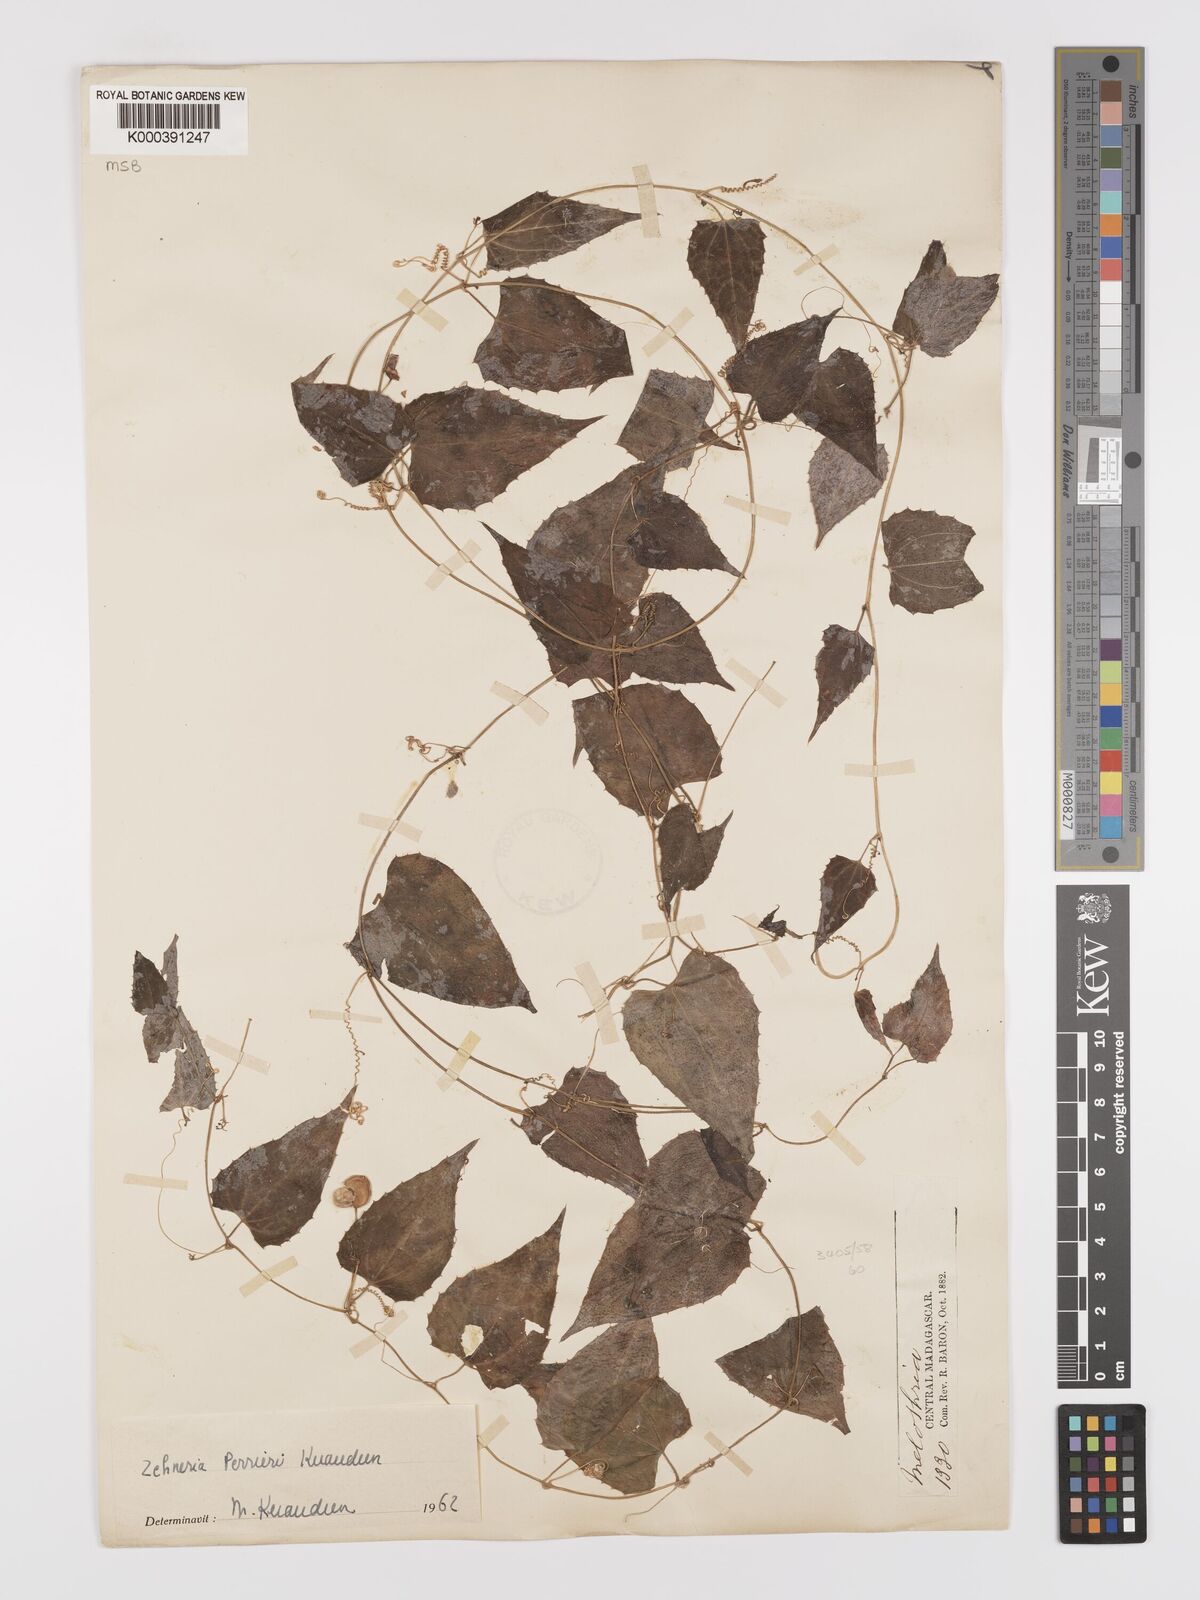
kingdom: Plantae
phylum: Tracheophyta
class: Magnoliopsida
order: Cucurbitales
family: Cucurbitaceae
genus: Zehneria
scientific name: Zehneria perrieri
